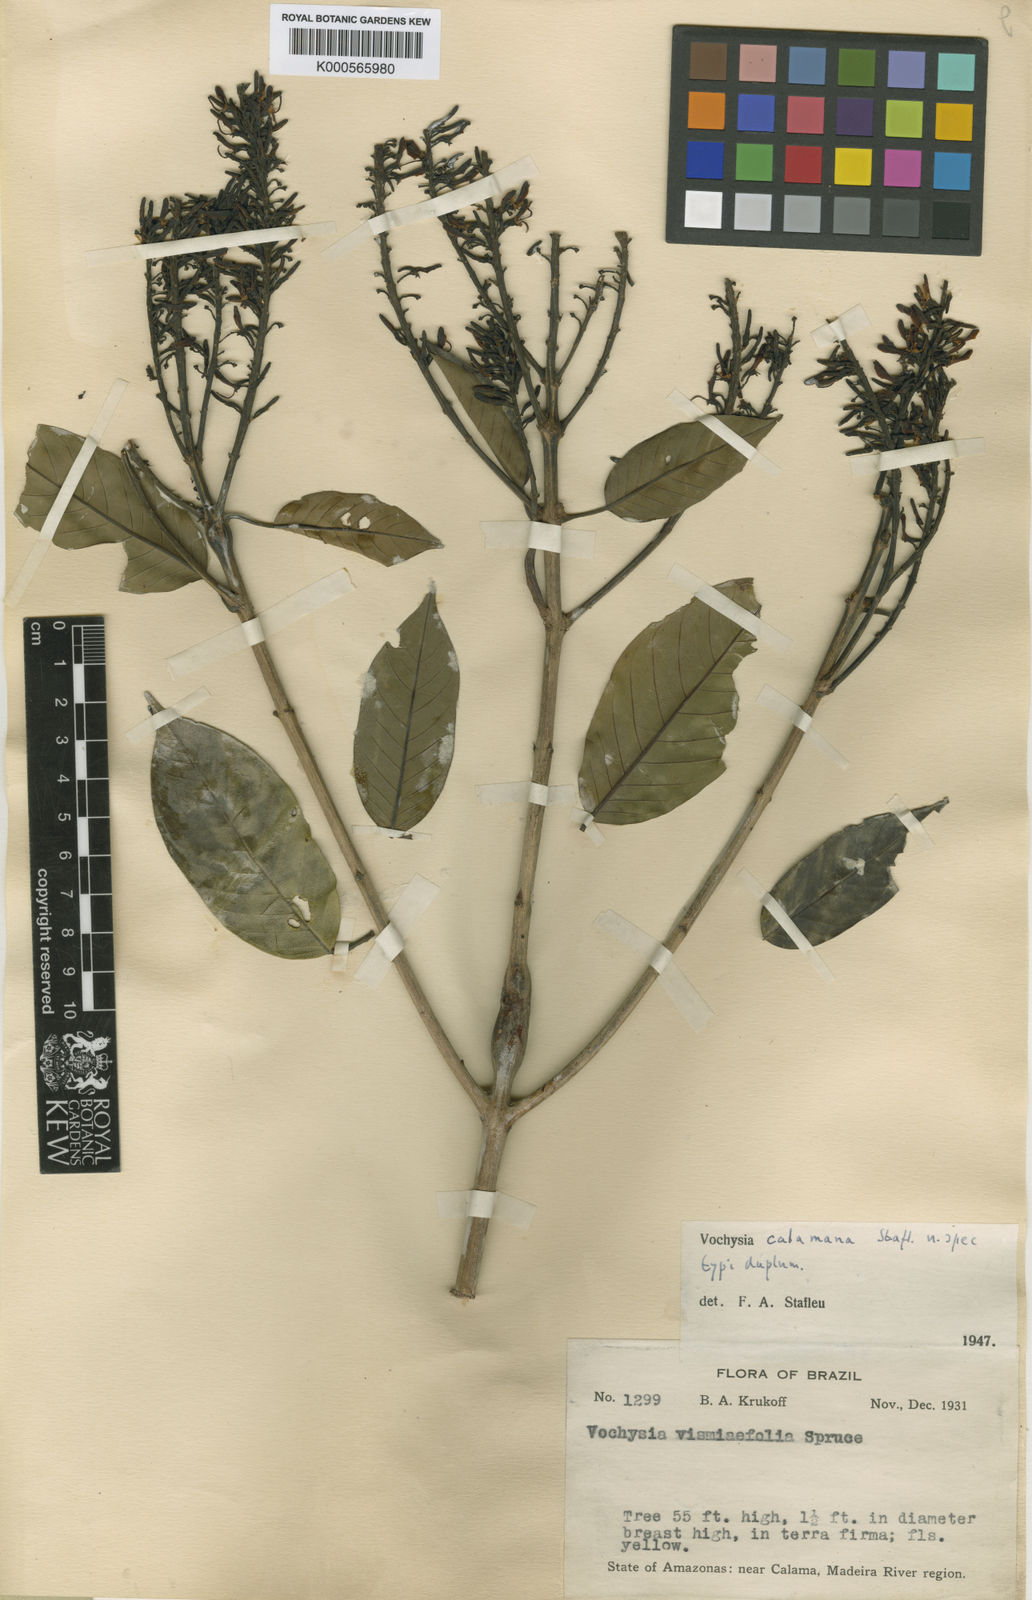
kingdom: Plantae
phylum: Tracheophyta
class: Magnoliopsida
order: Myrtales
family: Vochysiaceae
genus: Vochysia
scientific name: Vochysia calamana
